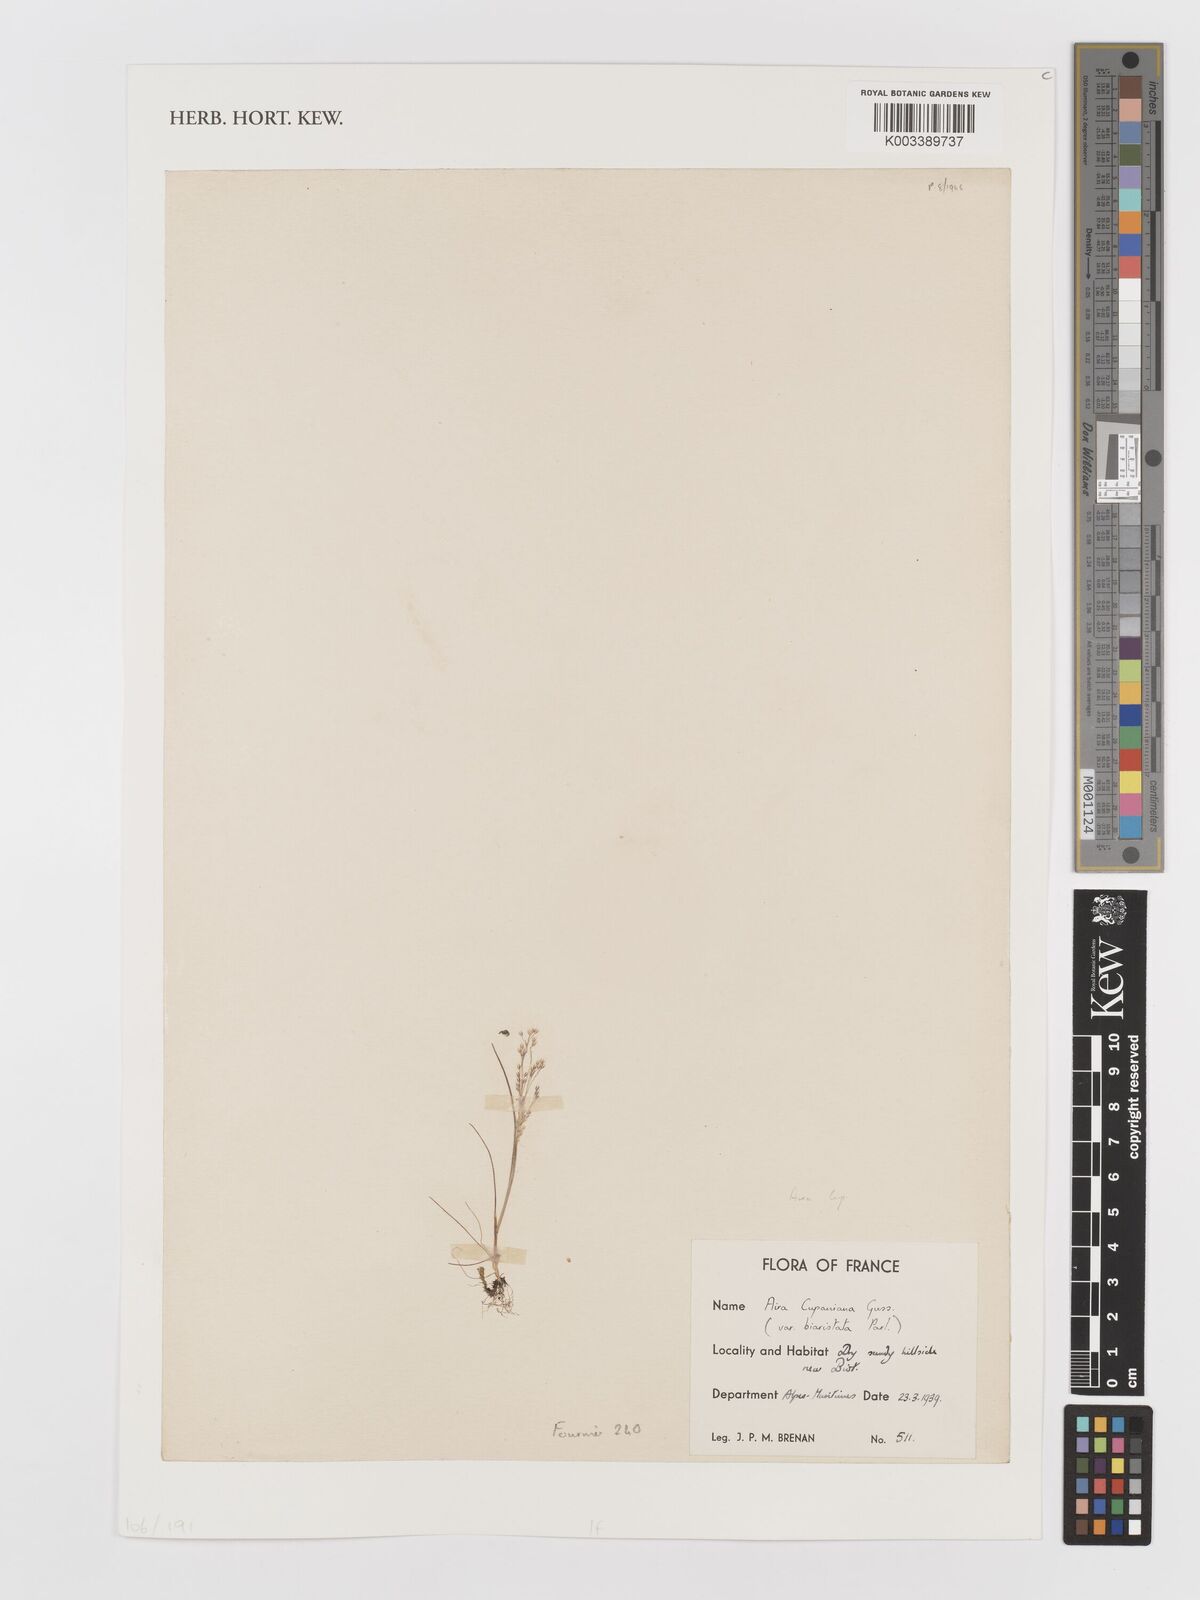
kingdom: Plantae
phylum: Tracheophyta
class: Liliopsida
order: Poales
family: Poaceae
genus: Aira
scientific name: Aira cupaniana
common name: Silver hairgrass
